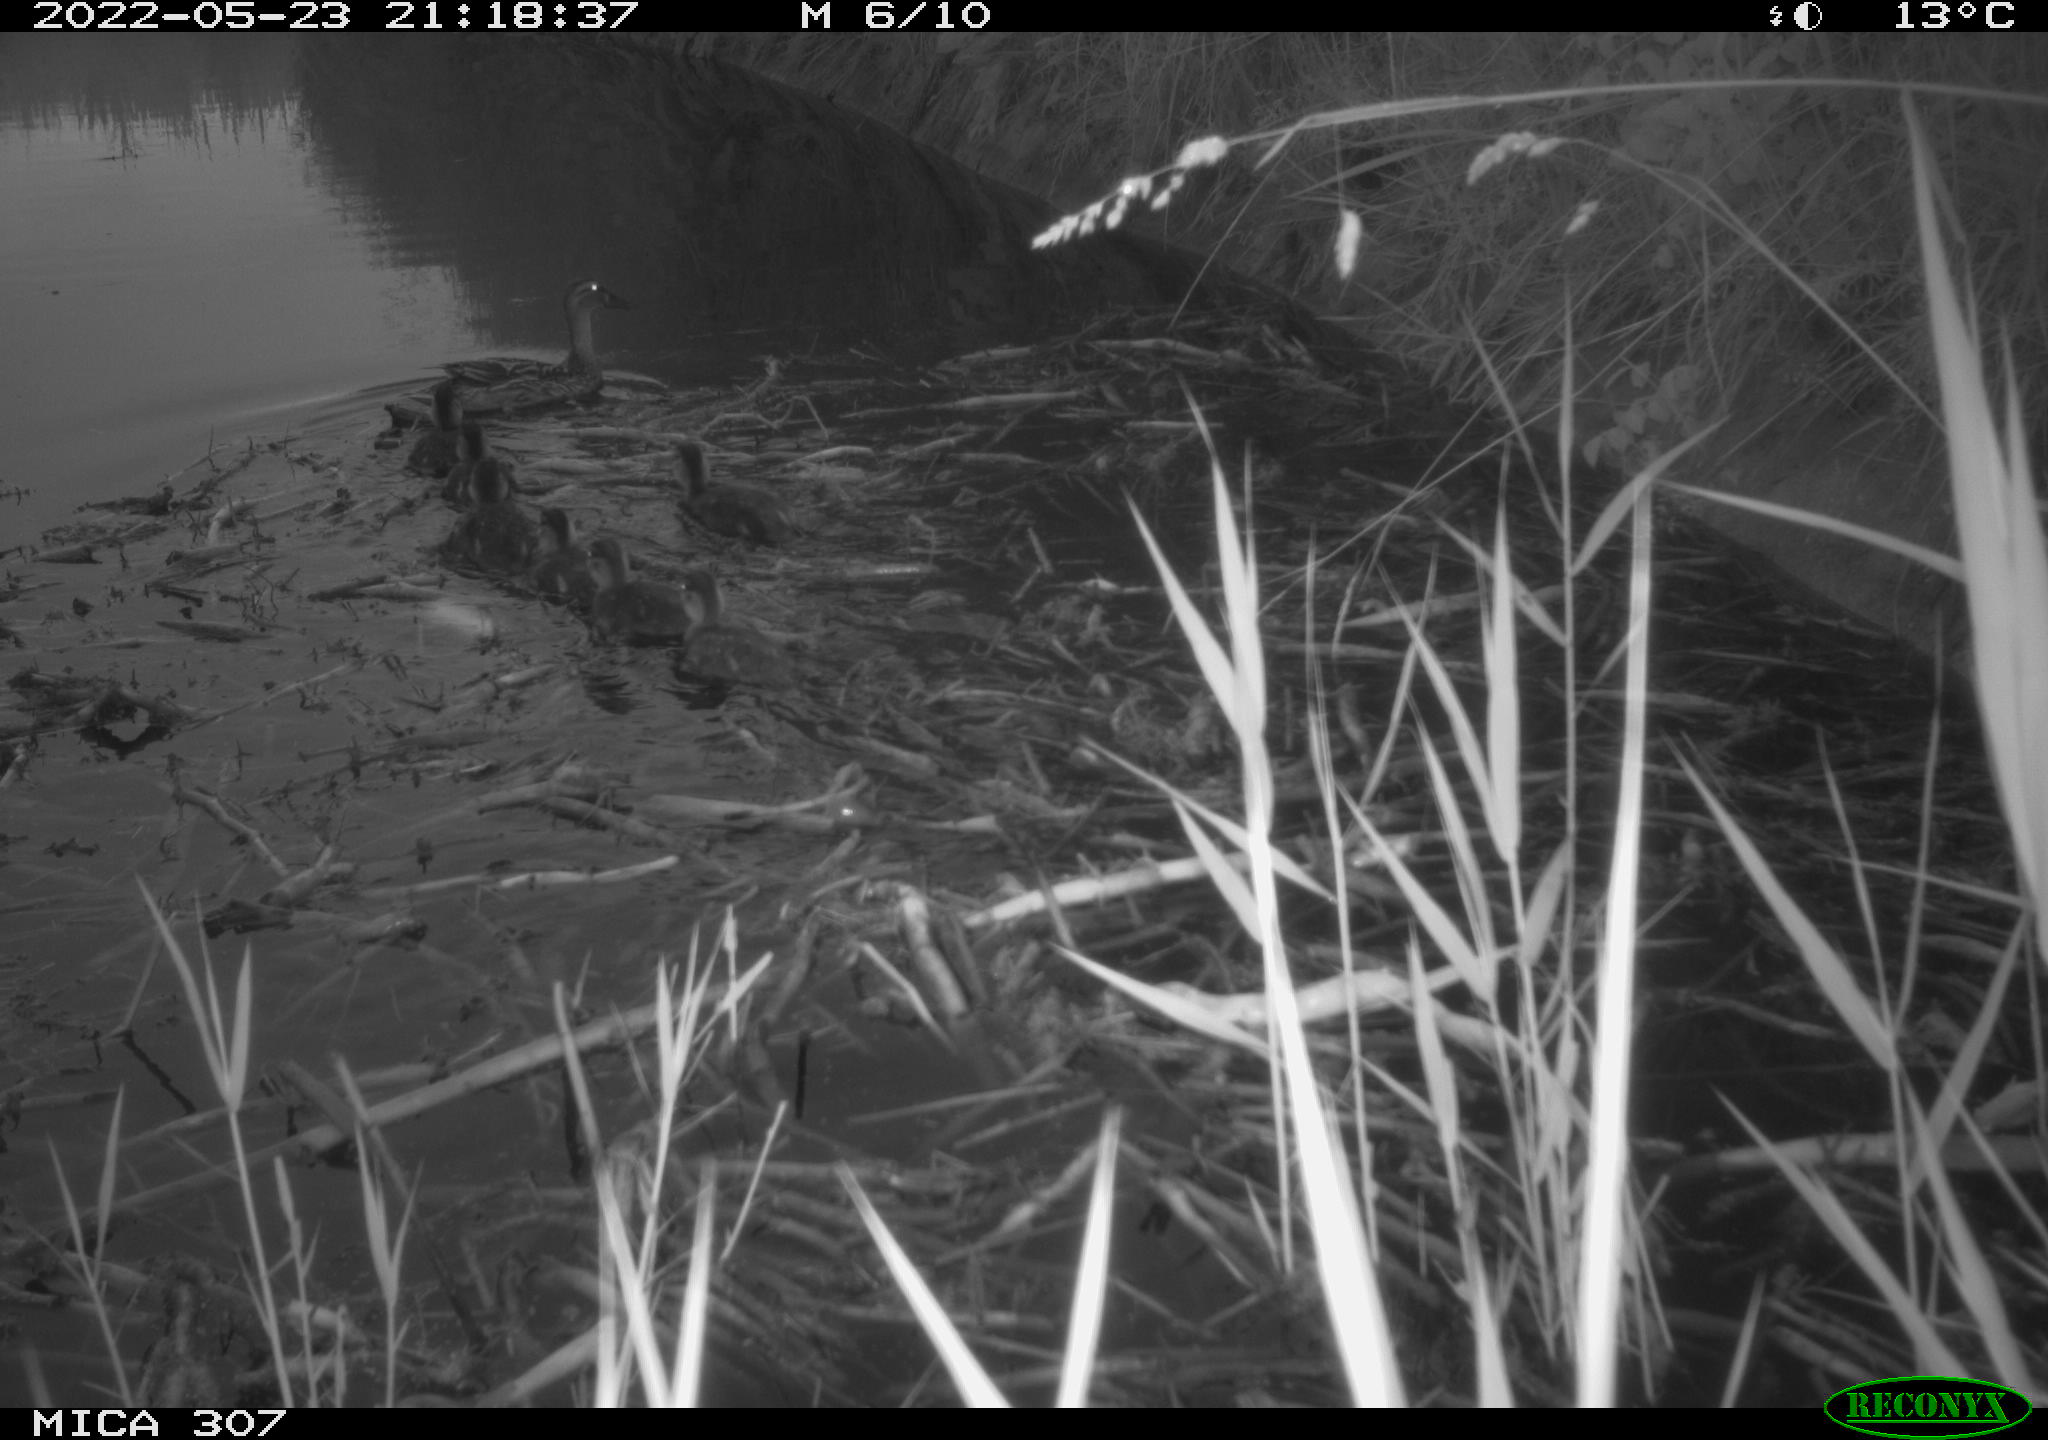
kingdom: Animalia
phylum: Chordata
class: Aves
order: Anseriformes
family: Anatidae
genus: Anas
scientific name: Anas platyrhynchos
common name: Mallard
